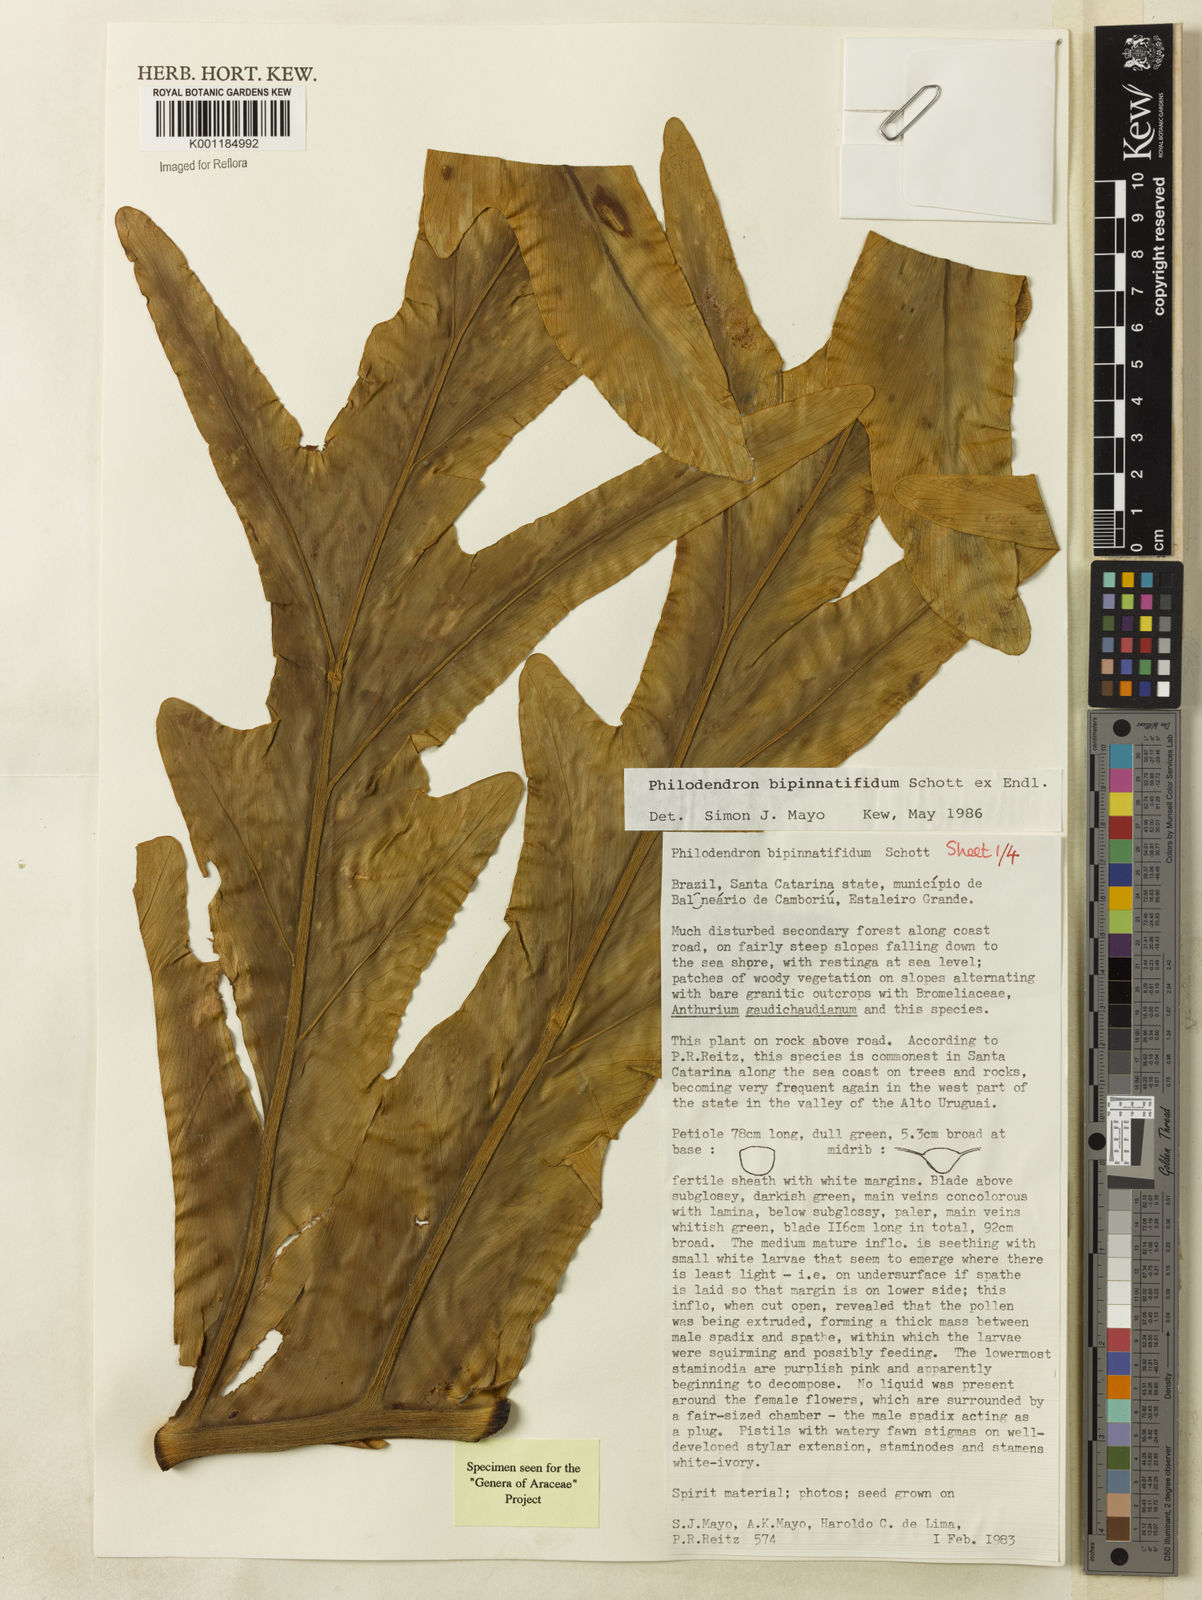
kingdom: Plantae
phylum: Tracheophyta
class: Liliopsida
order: Alismatales
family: Araceae
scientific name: Araceae
